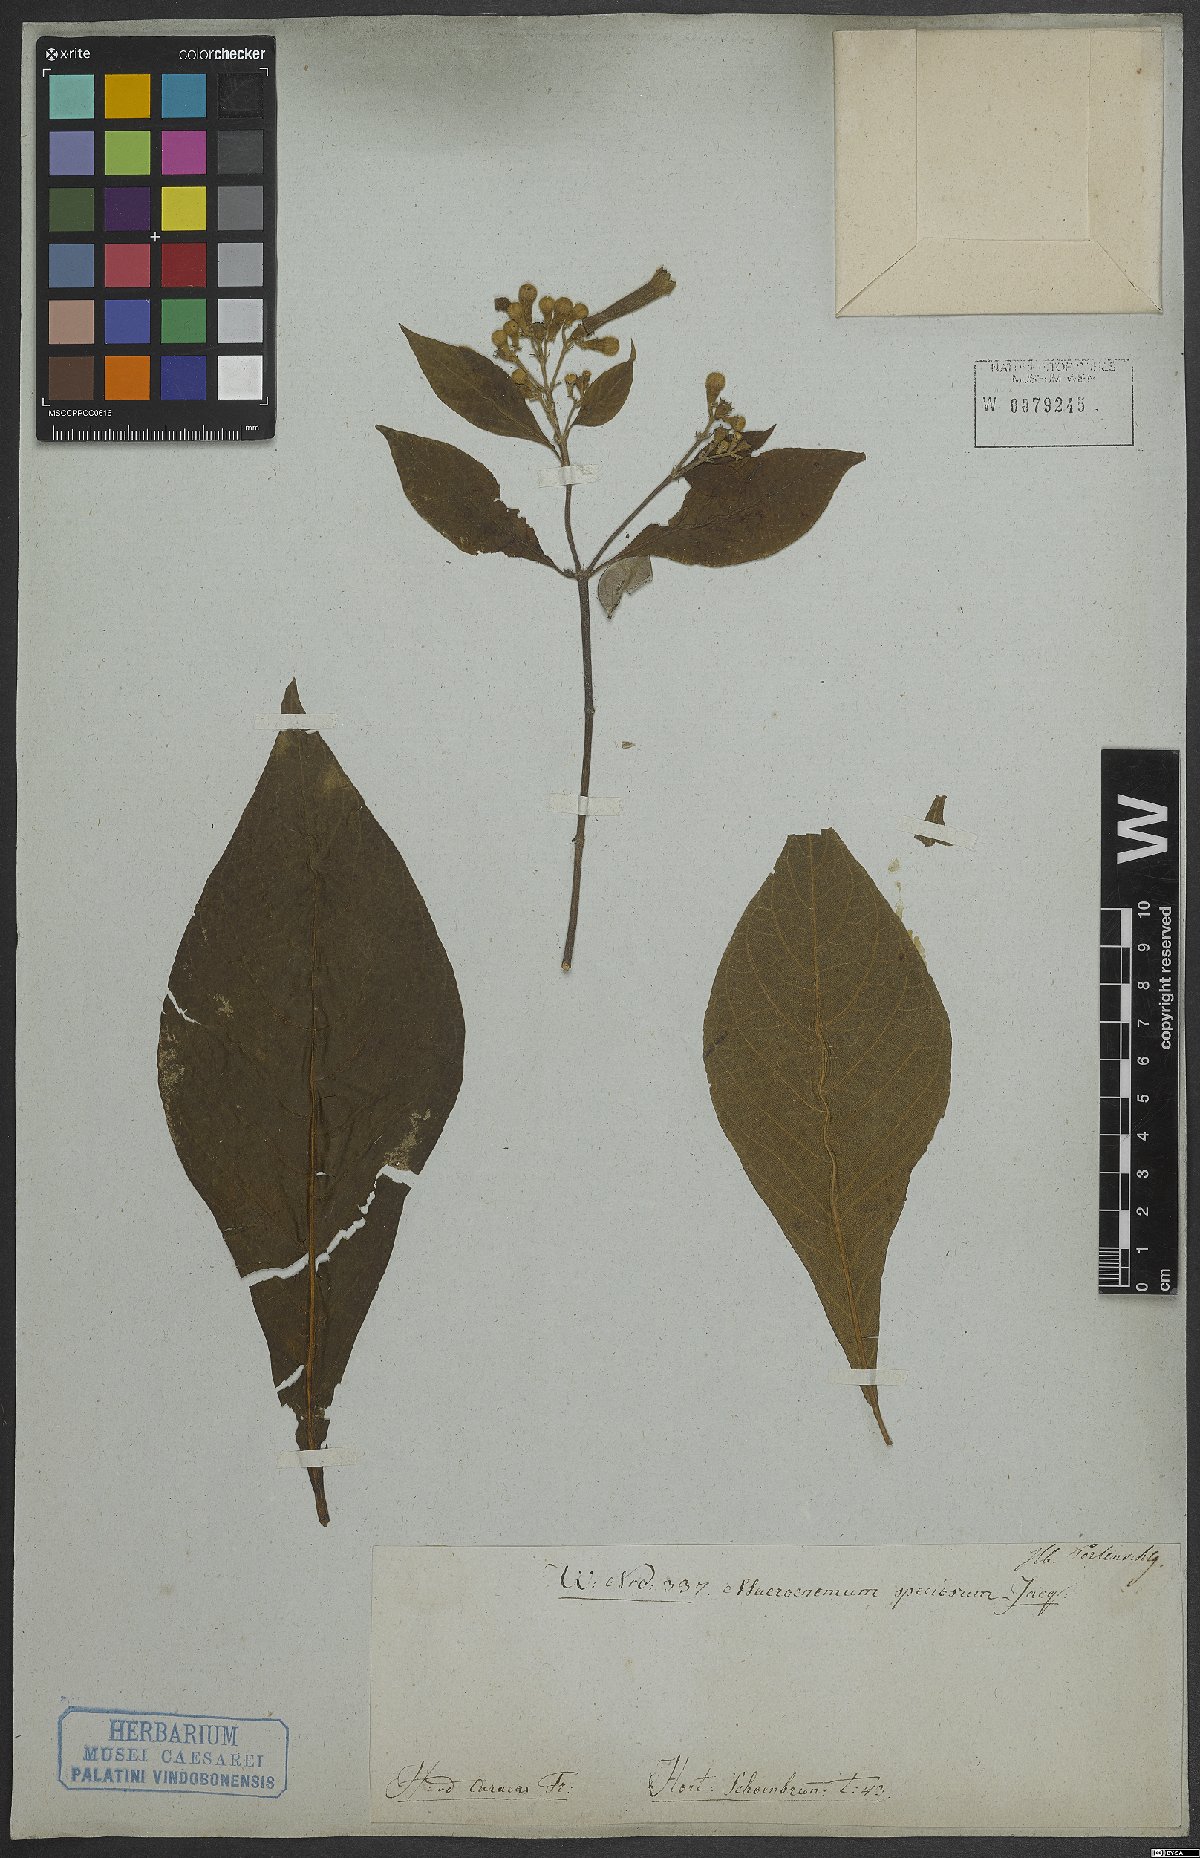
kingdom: Plantae
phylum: Tracheophyta
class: Magnoliopsida
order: Gentianales
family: Rubiaceae
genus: Pogonopus
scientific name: Pogonopus speciosus
